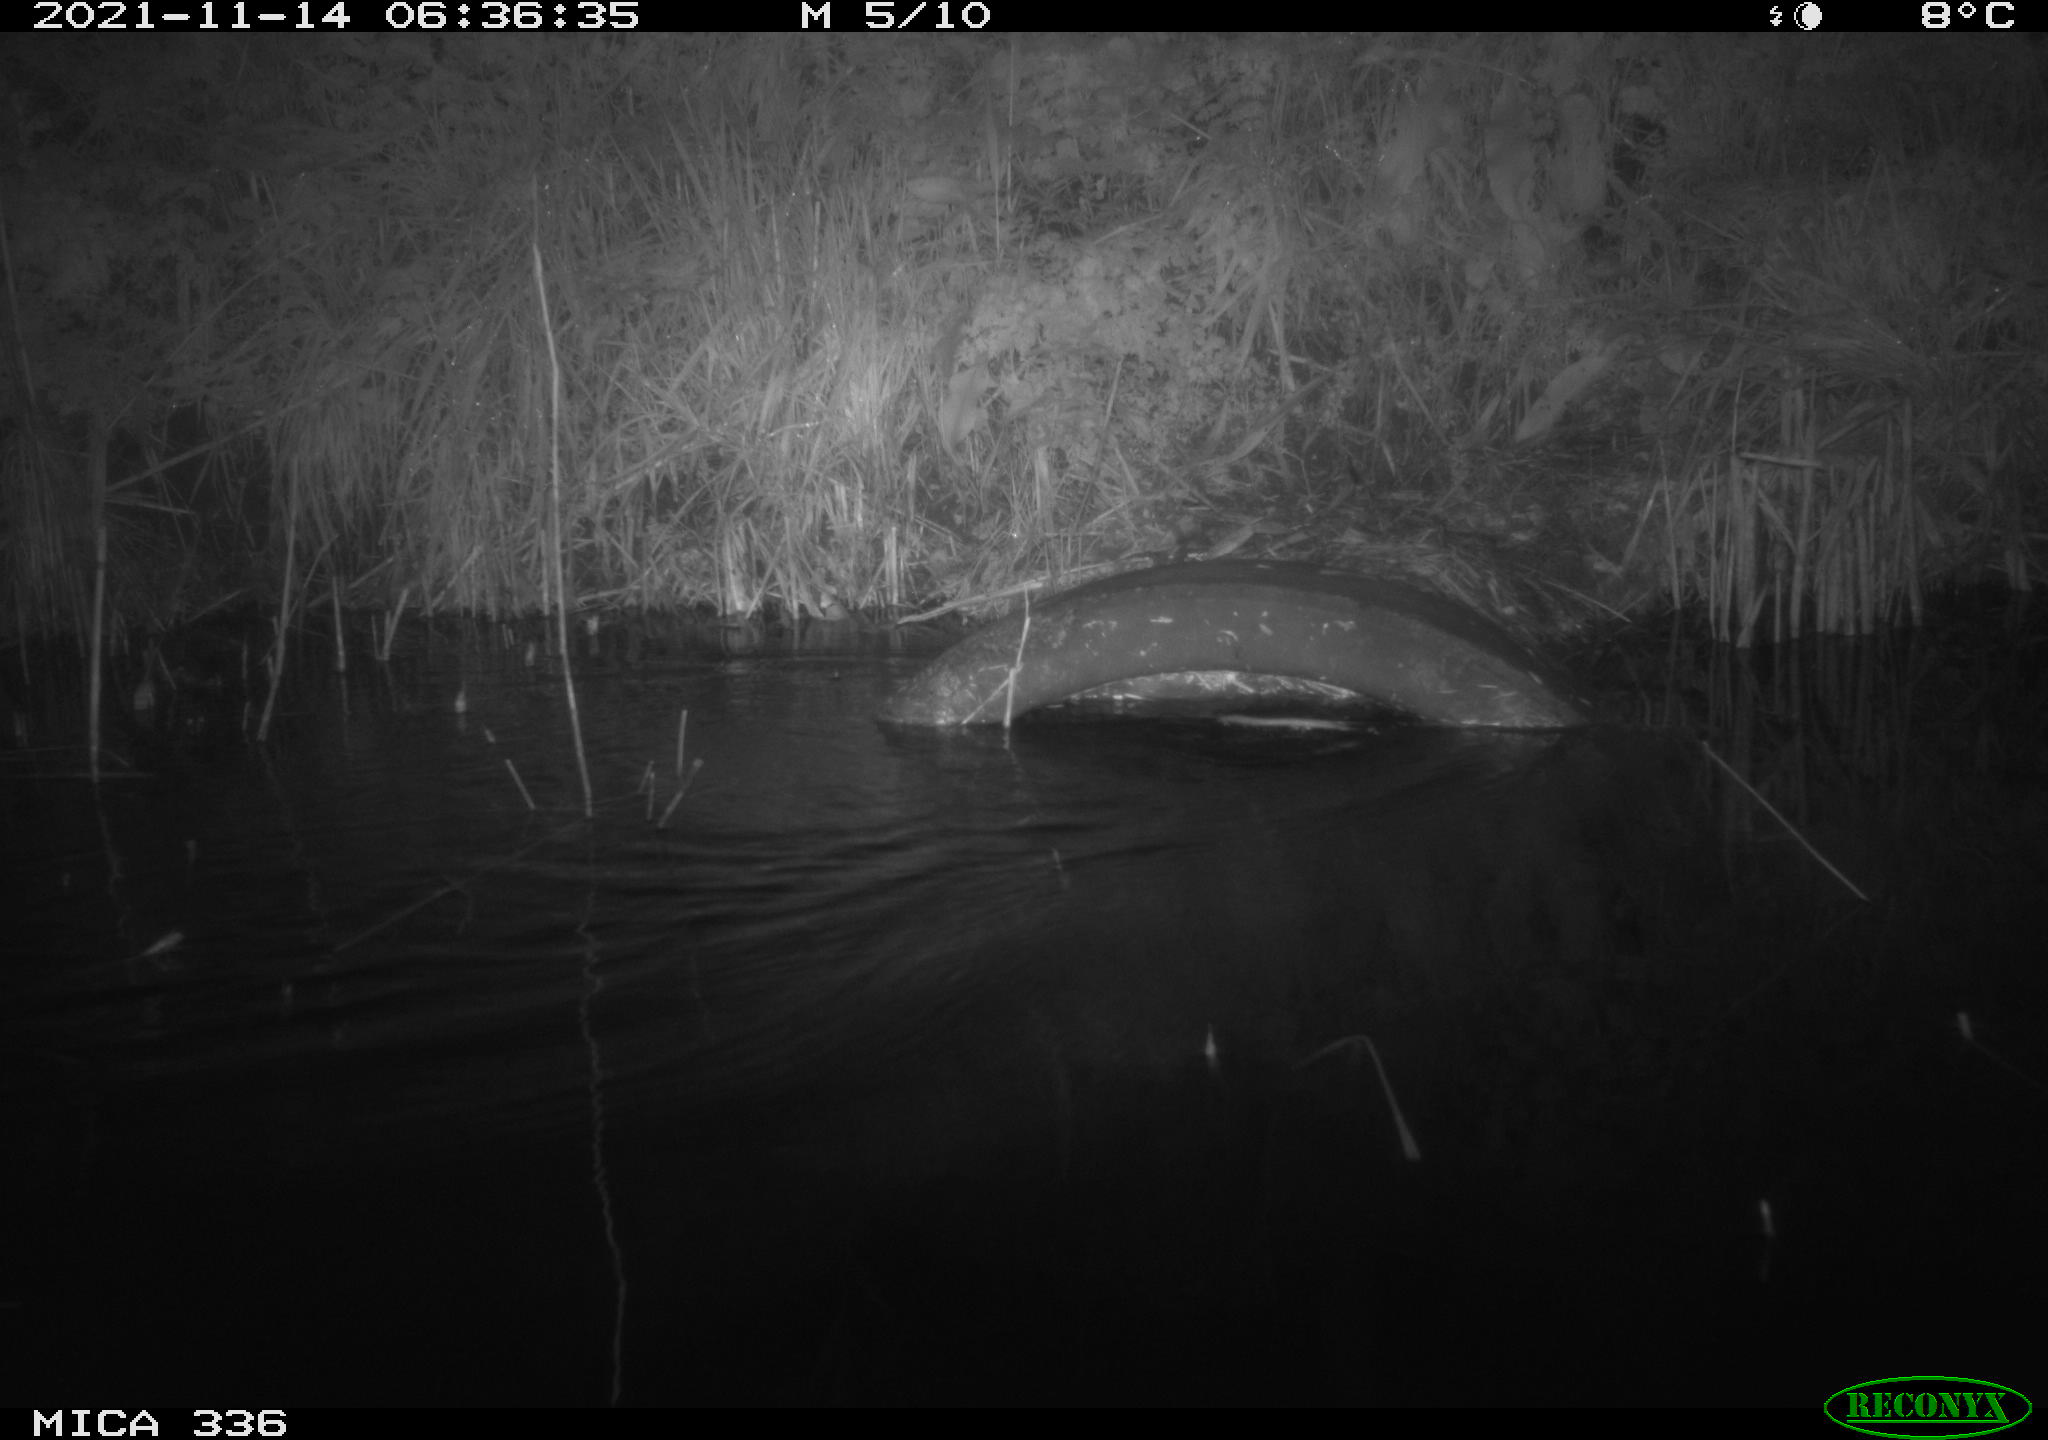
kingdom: Animalia
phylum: Chordata
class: Mammalia
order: Rodentia
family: Muridae
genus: Rattus
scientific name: Rattus norvegicus
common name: Brown rat
